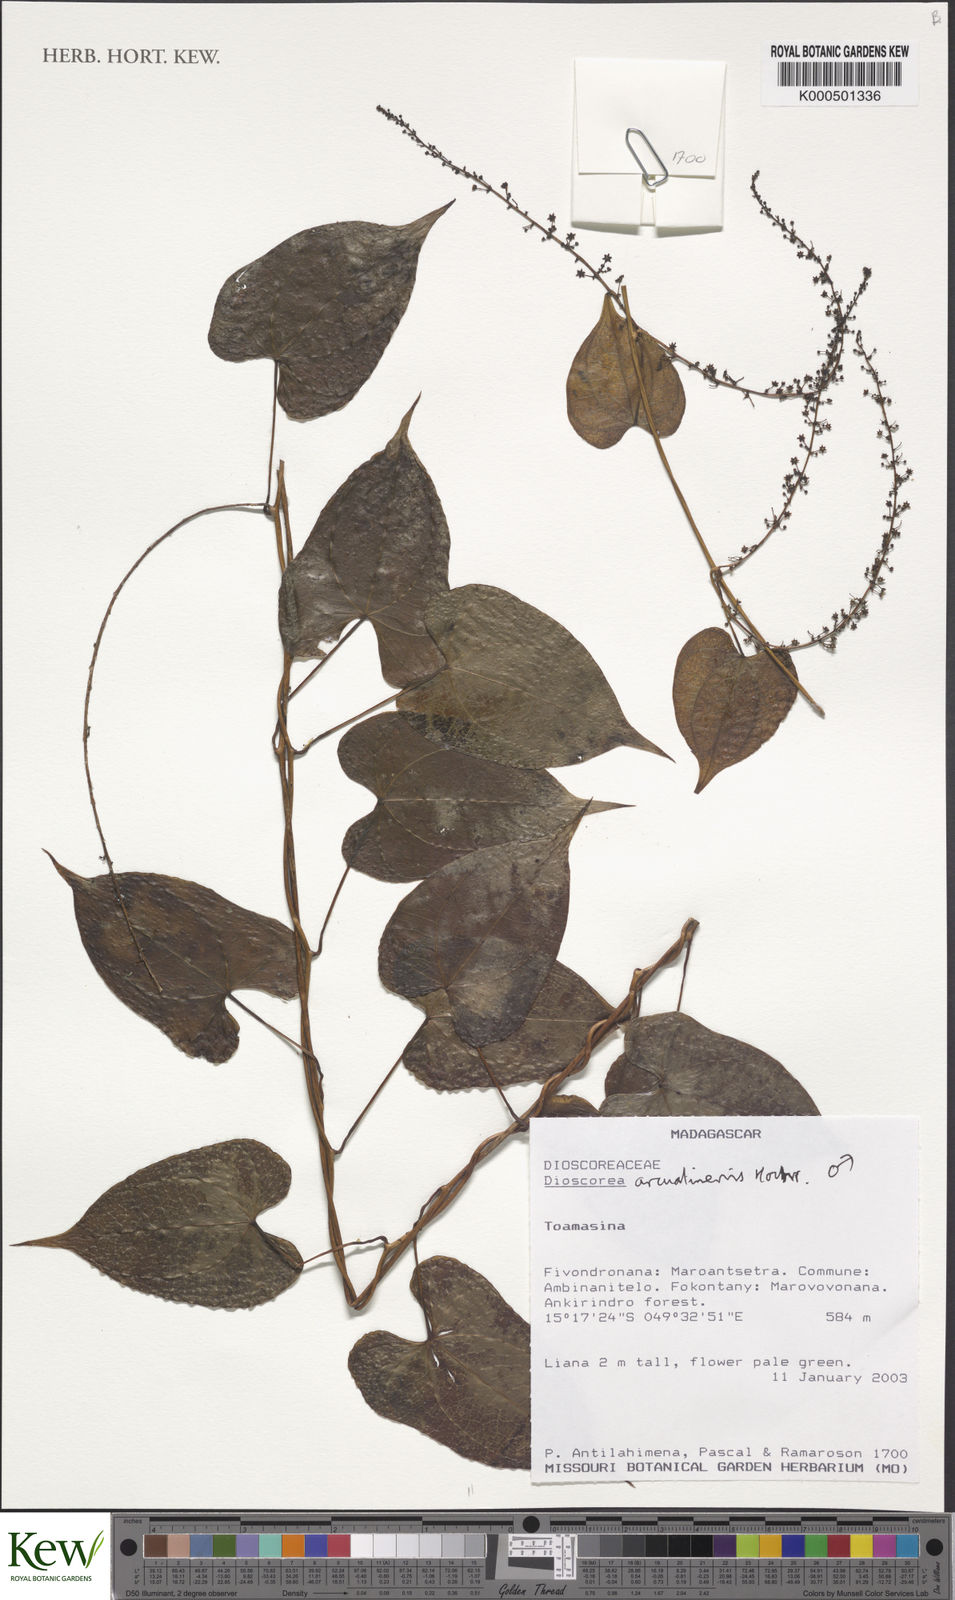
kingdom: Plantae
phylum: Tracheophyta
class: Liliopsida
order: Dioscoreales
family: Dioscoreaceae
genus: Dioscorea
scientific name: Dioscorea arcuatinervis
